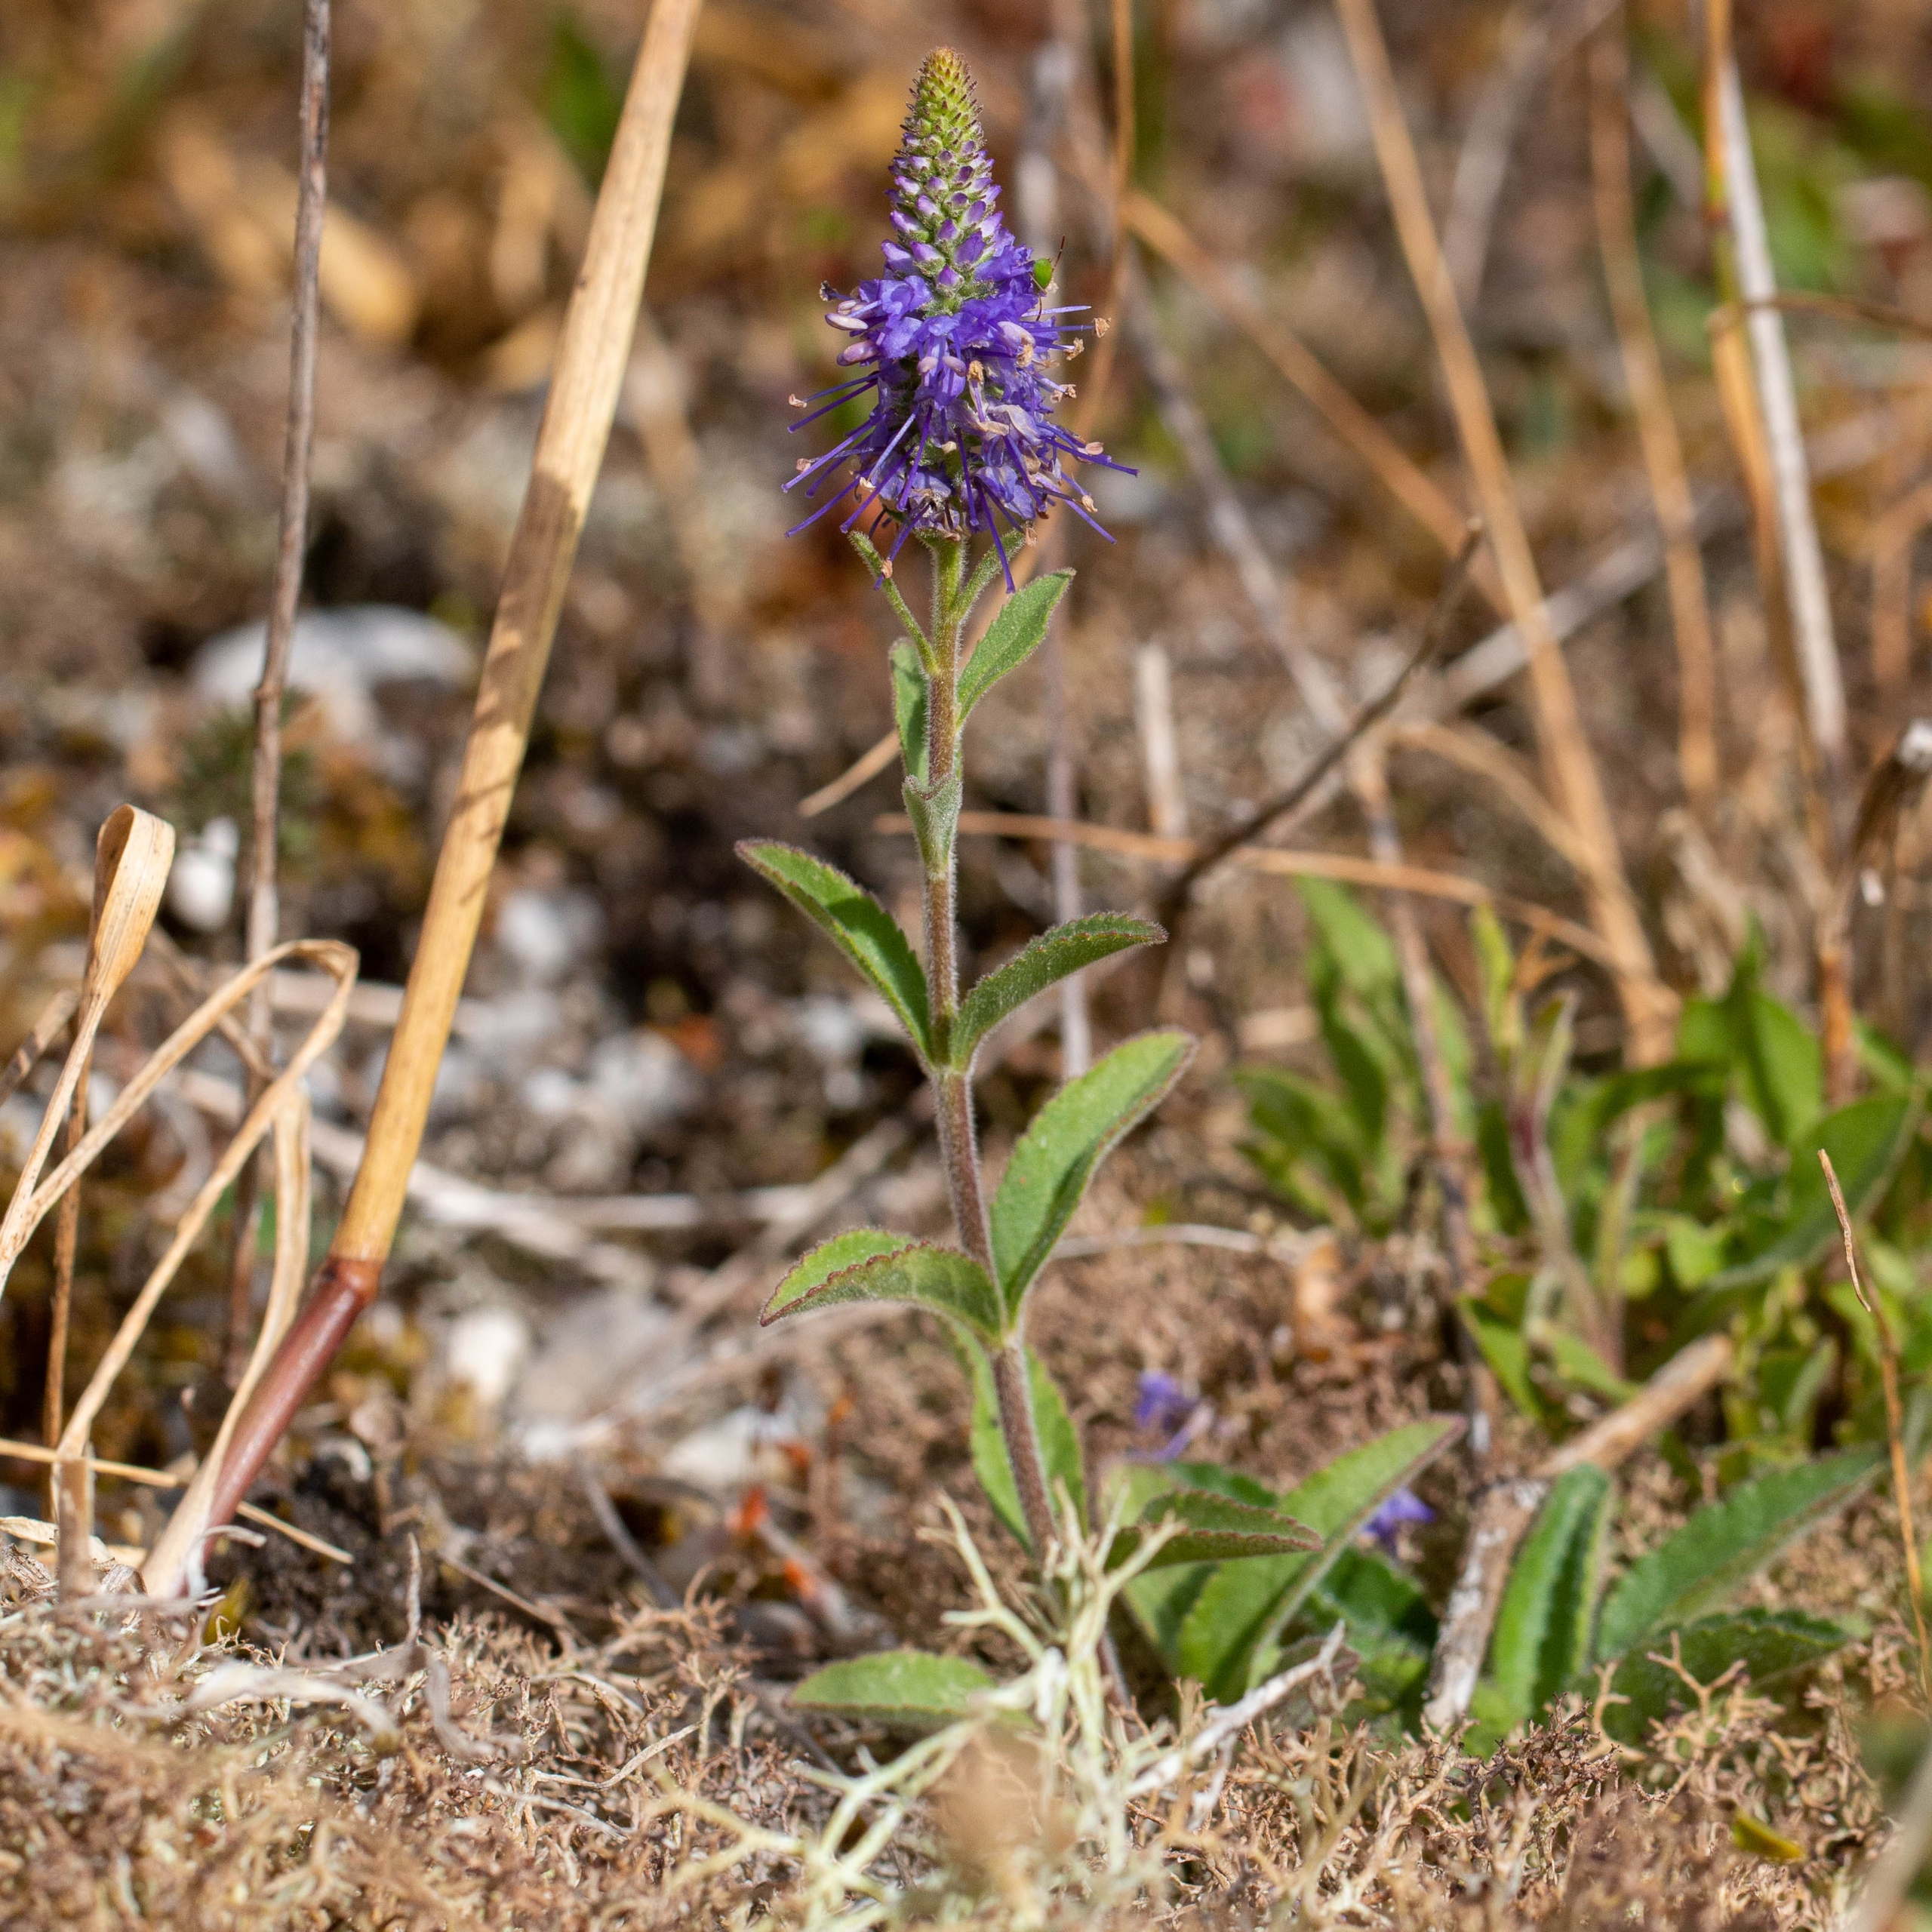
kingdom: Plantae
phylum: Tracheophyta
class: Magnoliopsida
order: Lamiales
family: Plantaginaceae
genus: Veronica
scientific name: Veronica spicata
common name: Aks-ærenpris
